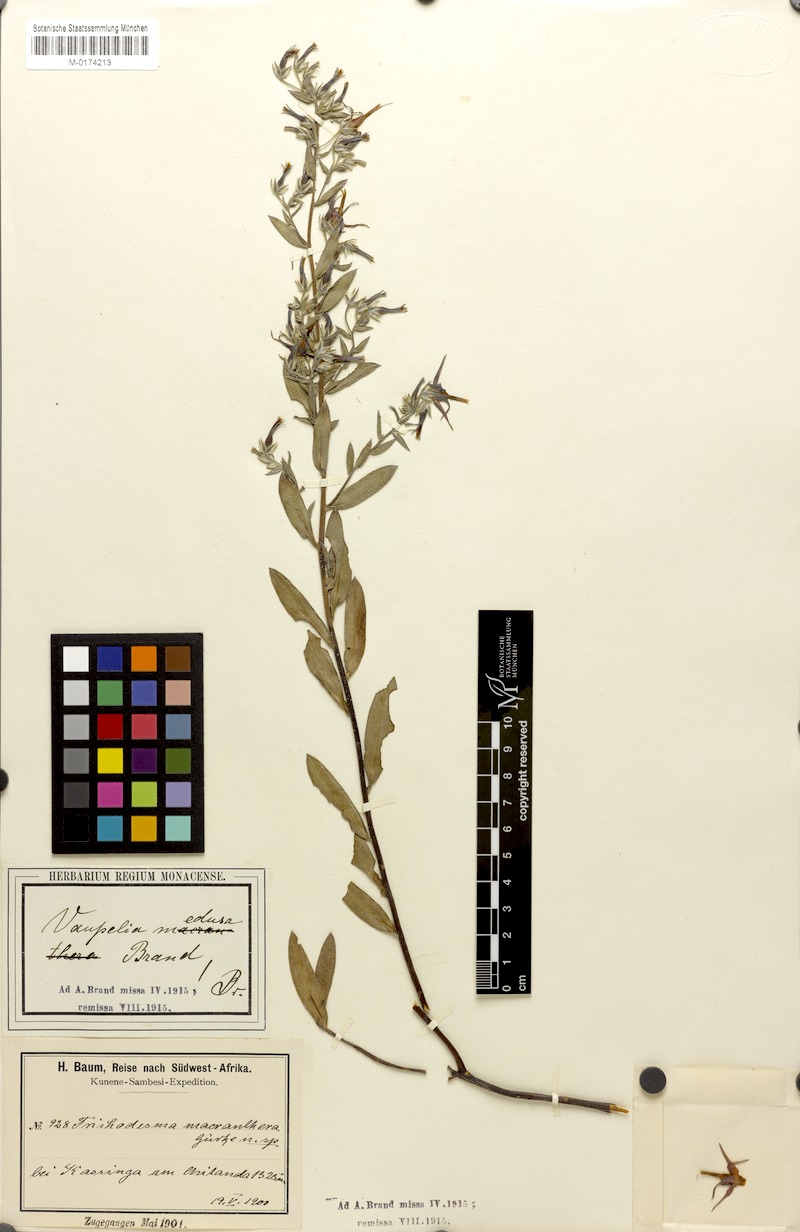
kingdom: Plantae
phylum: Tracheophyta
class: Magnoliopsida
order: Boraginales
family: Boraginaceae
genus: Cystostemon
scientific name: Cystostemon medusa
